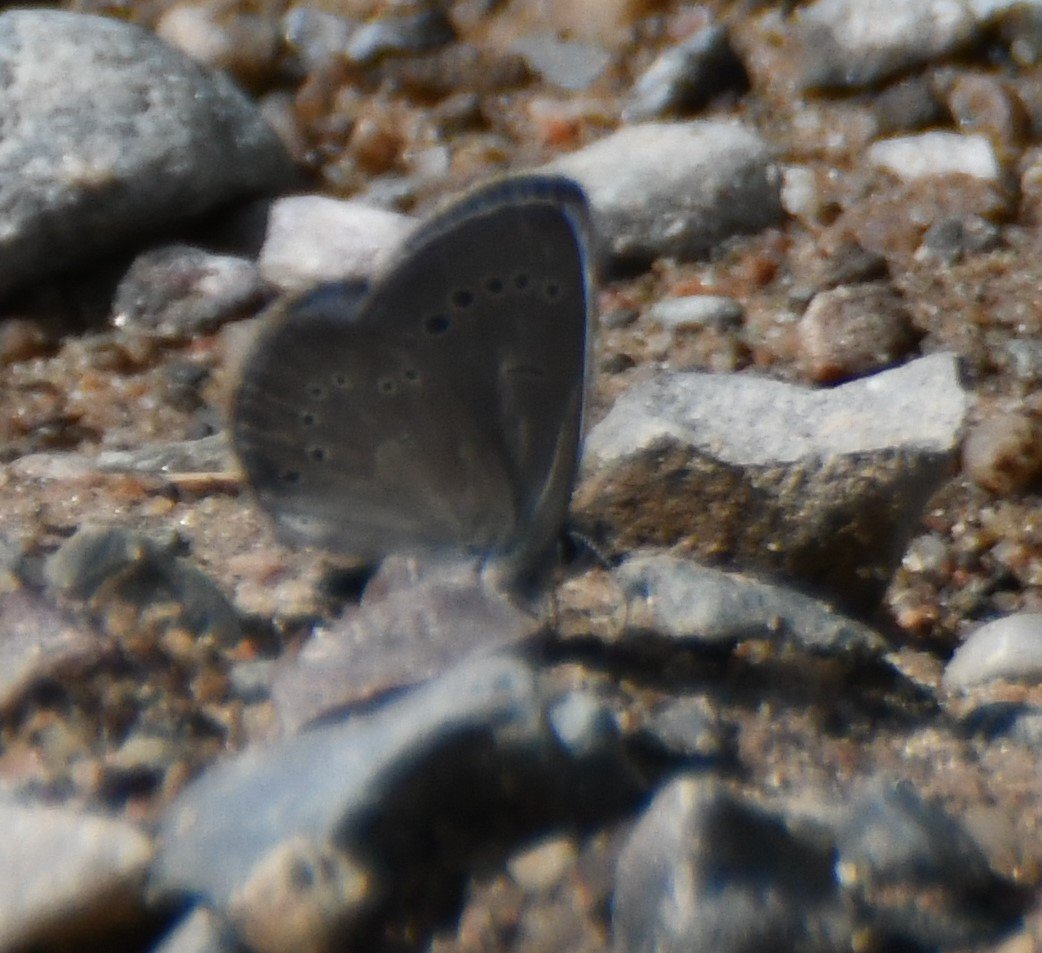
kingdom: Animalia
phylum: Arthropoda
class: Insecta
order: Lepidoptera
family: Lycaenidae
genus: Glaucopsyche
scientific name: Glaucopsyche lygdamus
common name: Silvery Blue
